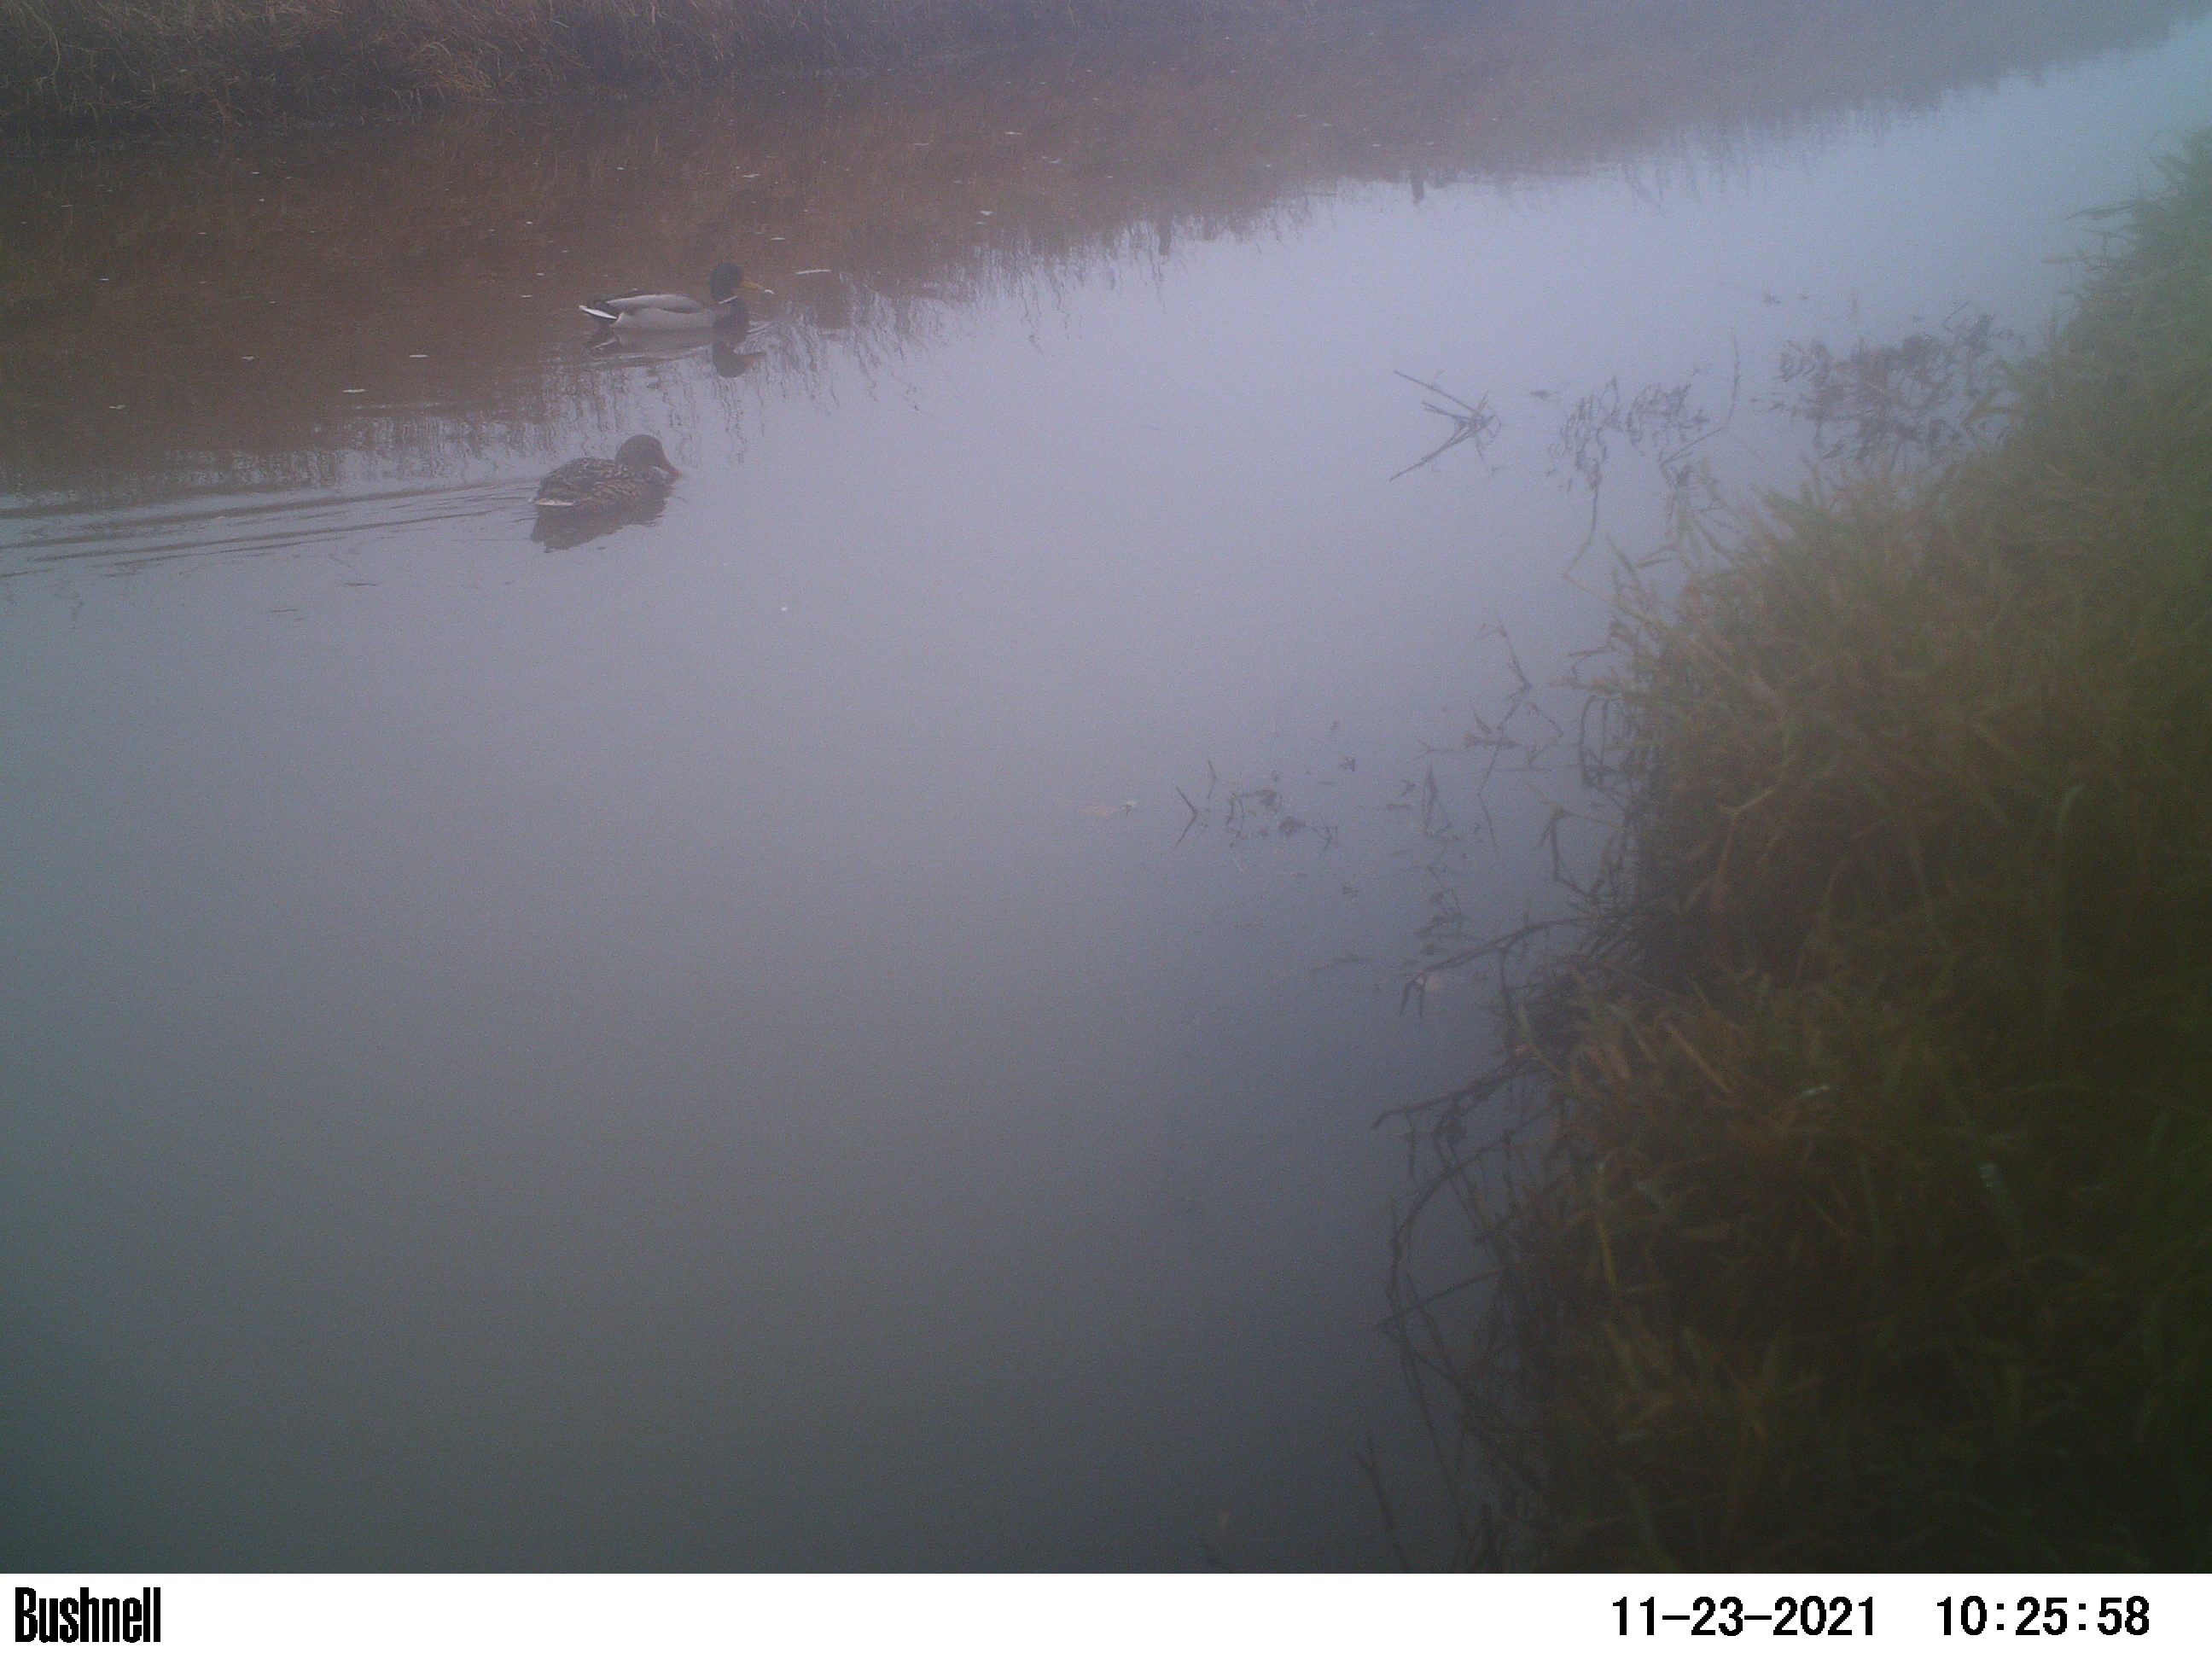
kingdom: Animalia
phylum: Chordata
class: Aves
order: Anseriformes
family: Anatidae
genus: Anas
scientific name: Anas
